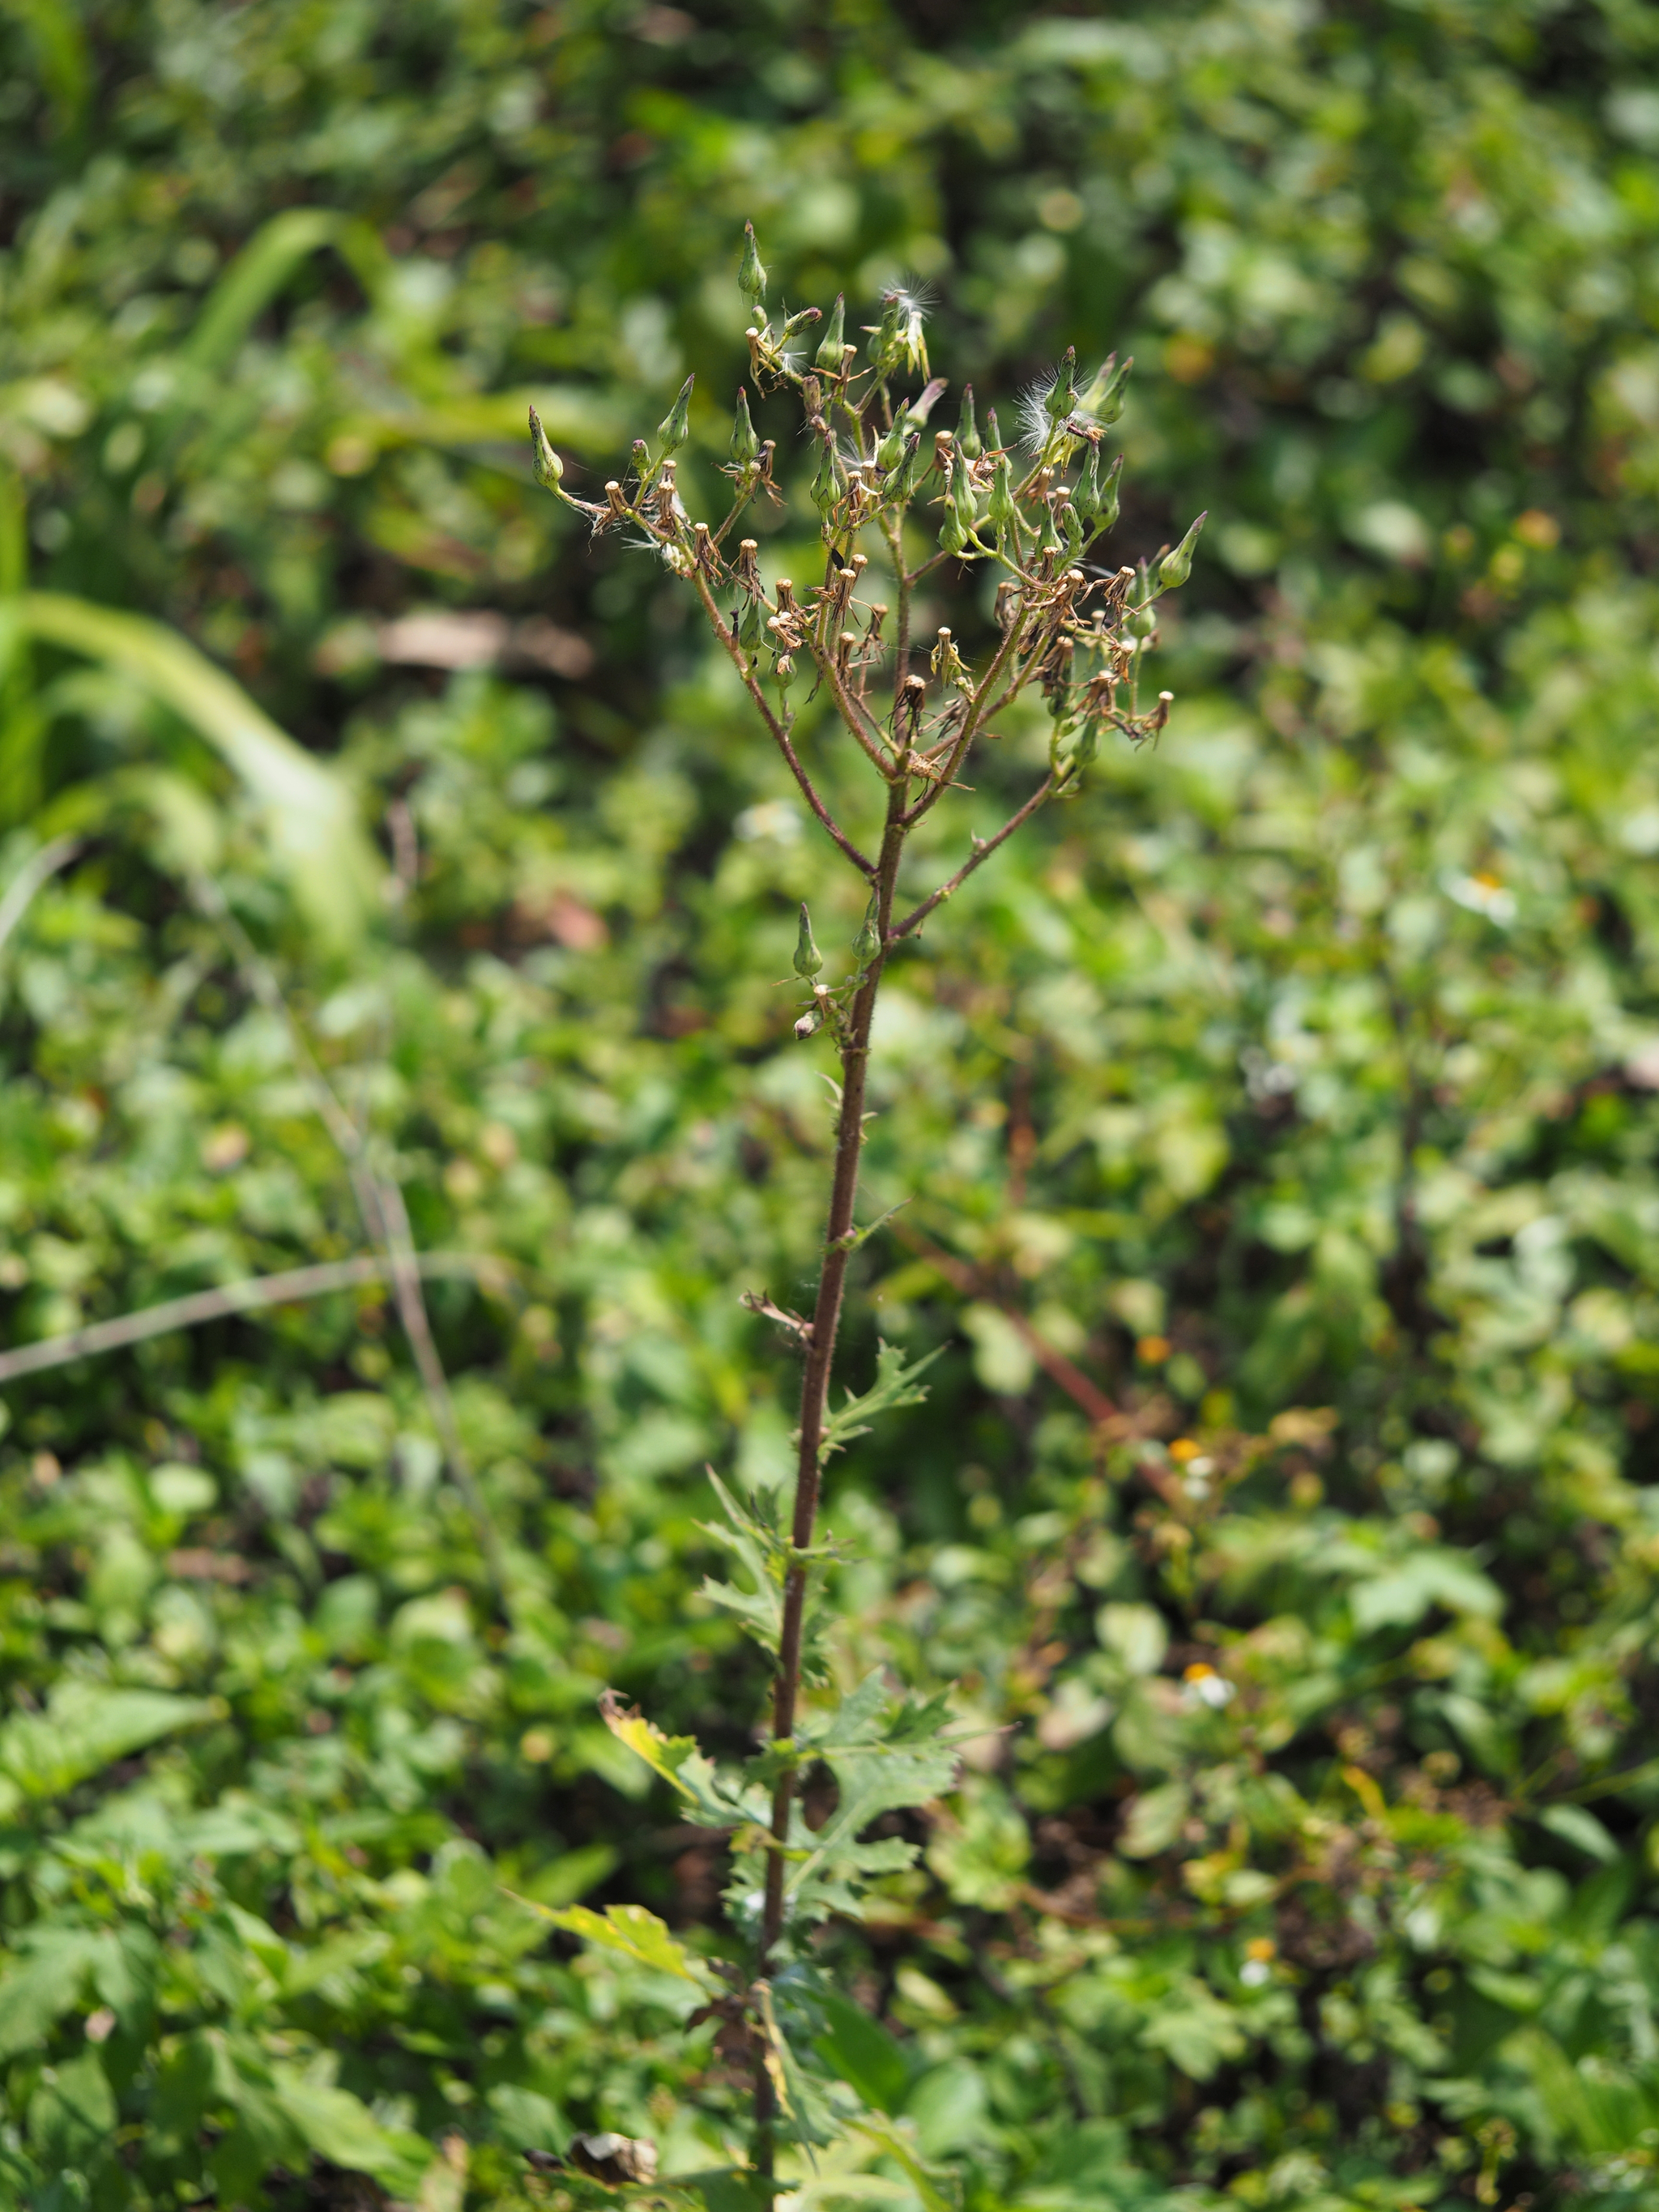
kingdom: Plantae
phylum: Tracheophyta
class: Magnoliopsida
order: Asterales
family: Asteraceae
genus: Lactuca
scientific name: Lactuca formosana
